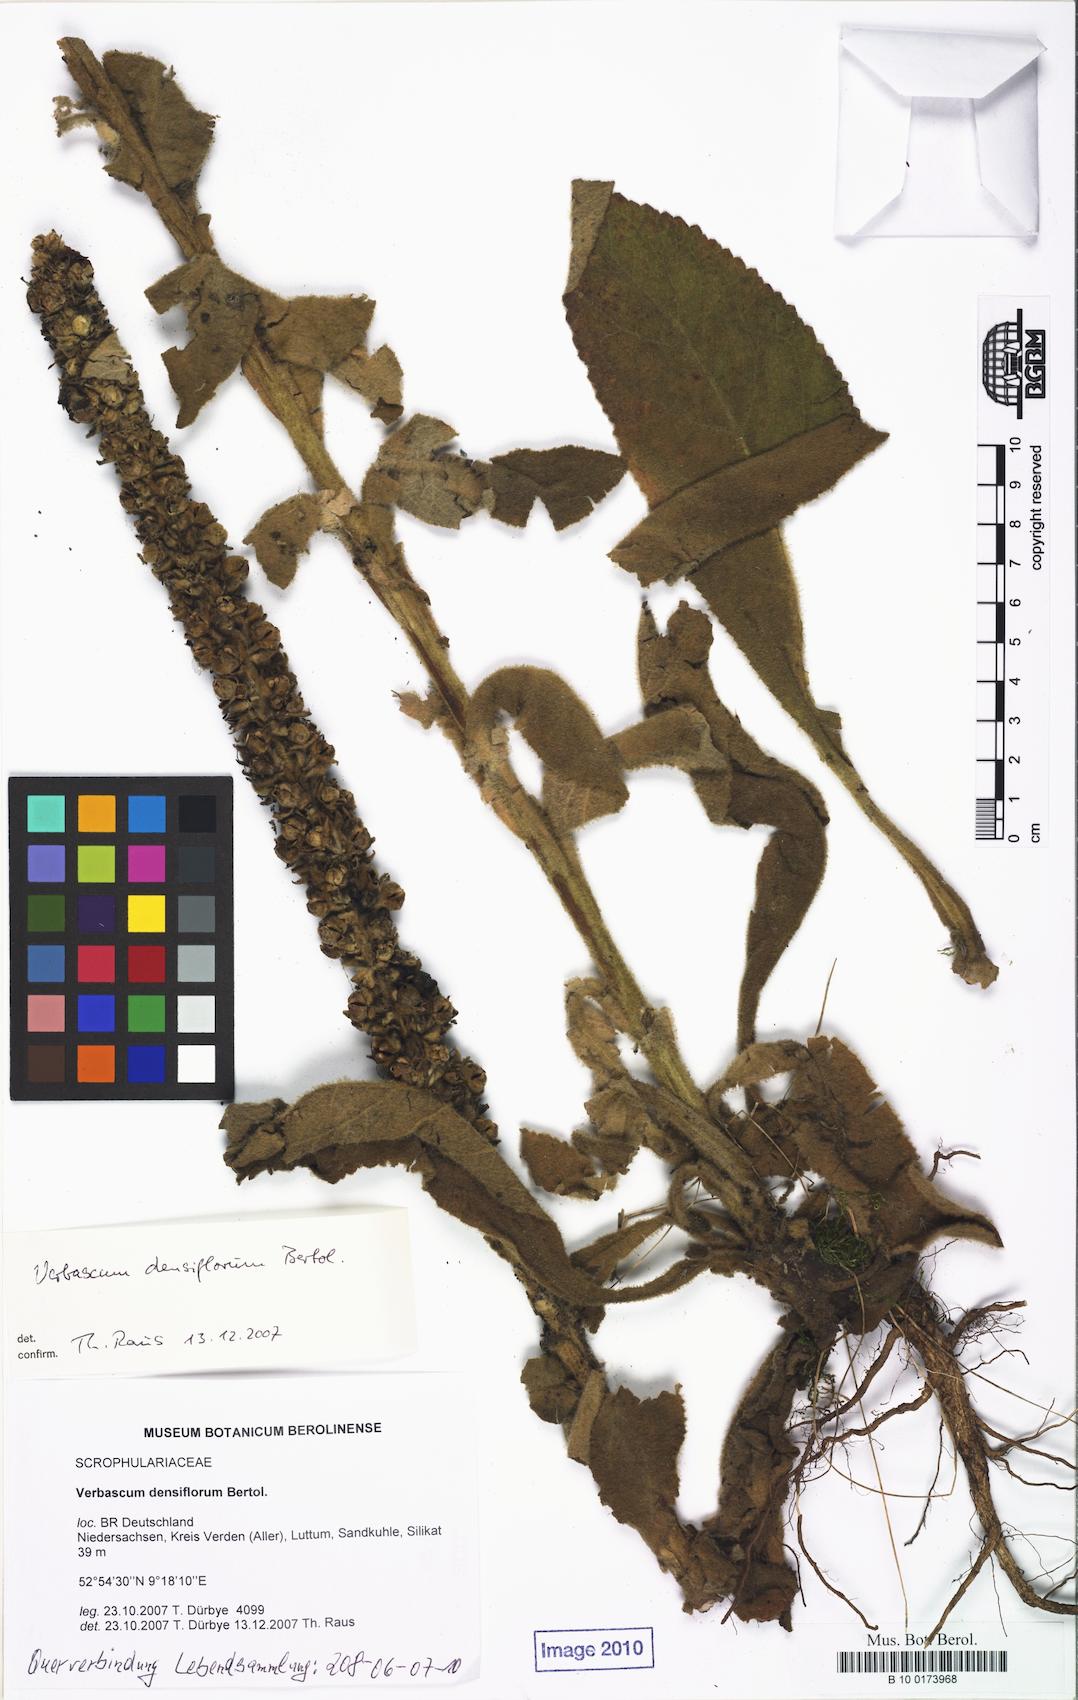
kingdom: Plantae
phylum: Tracheophyta
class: Magnoliopsida
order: Lamiales
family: Scrophulariaceae
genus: Verbascum
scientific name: Verbascum densiflorum
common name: Dense-flowered mullein
